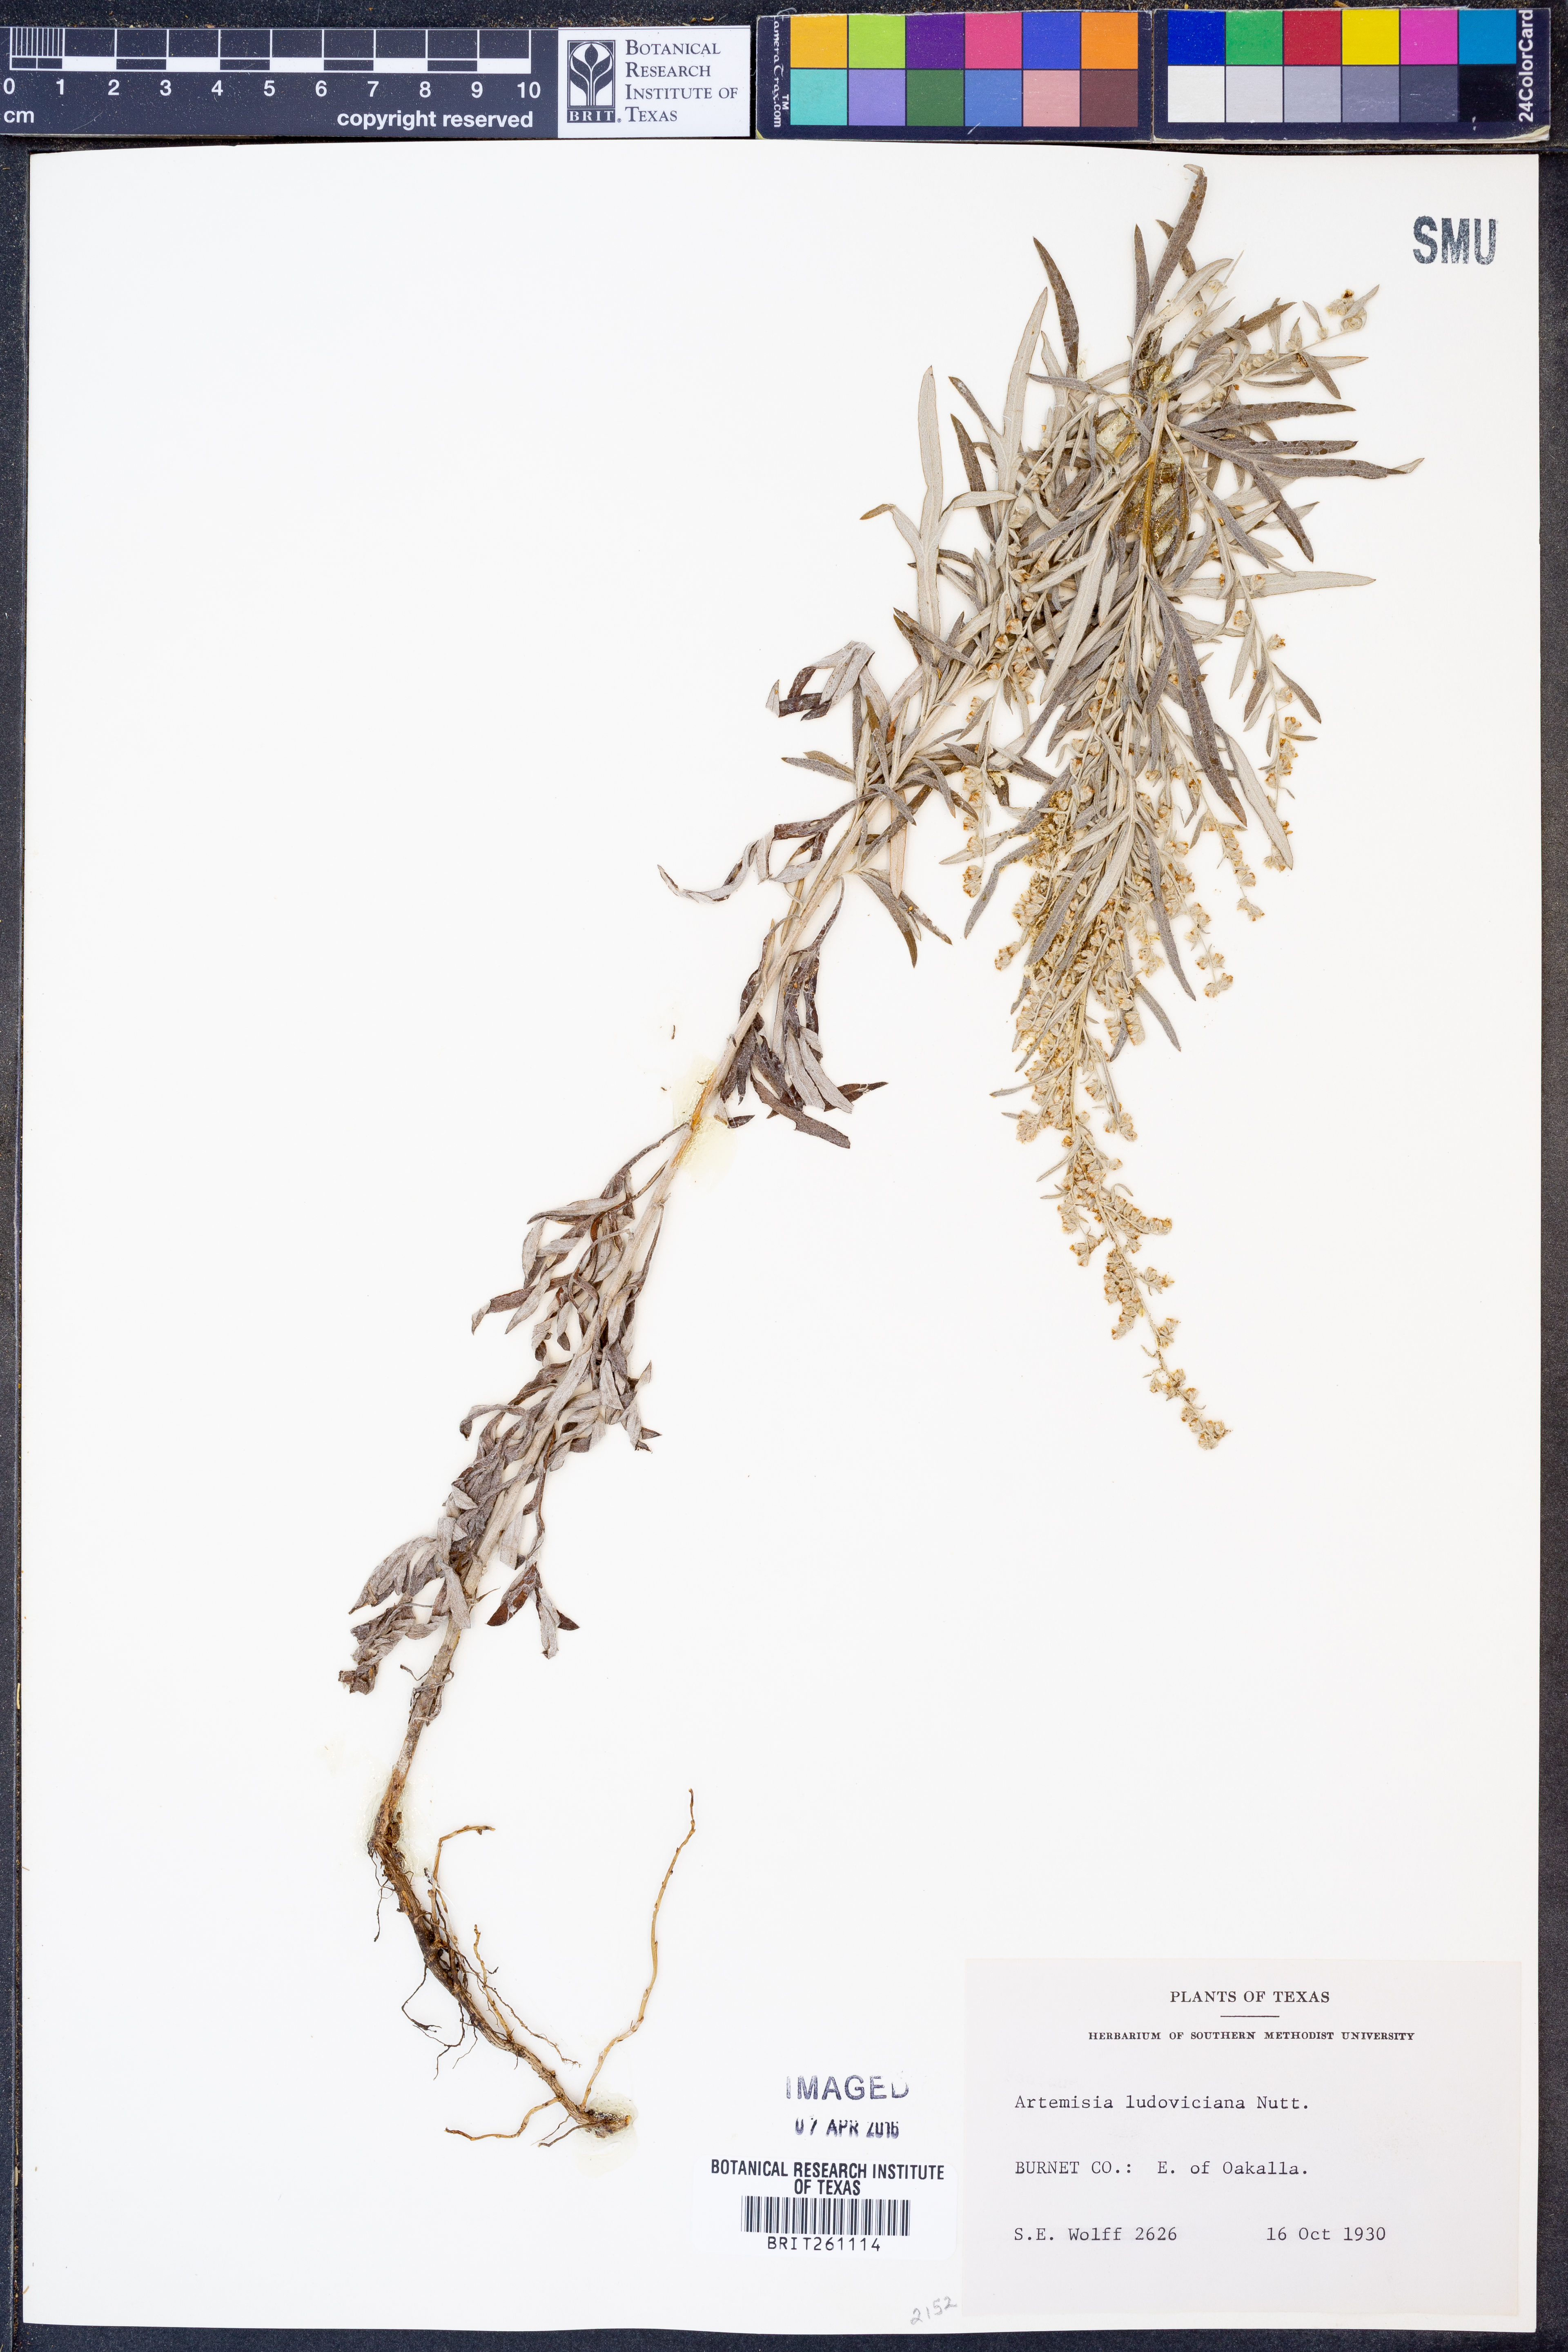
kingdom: Plantae
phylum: Tracheophyta
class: Magnoliopsida
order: Asterales
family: Asteraceae
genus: Artemisia
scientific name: Artemisia ludoviciana
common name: Western mugwort
